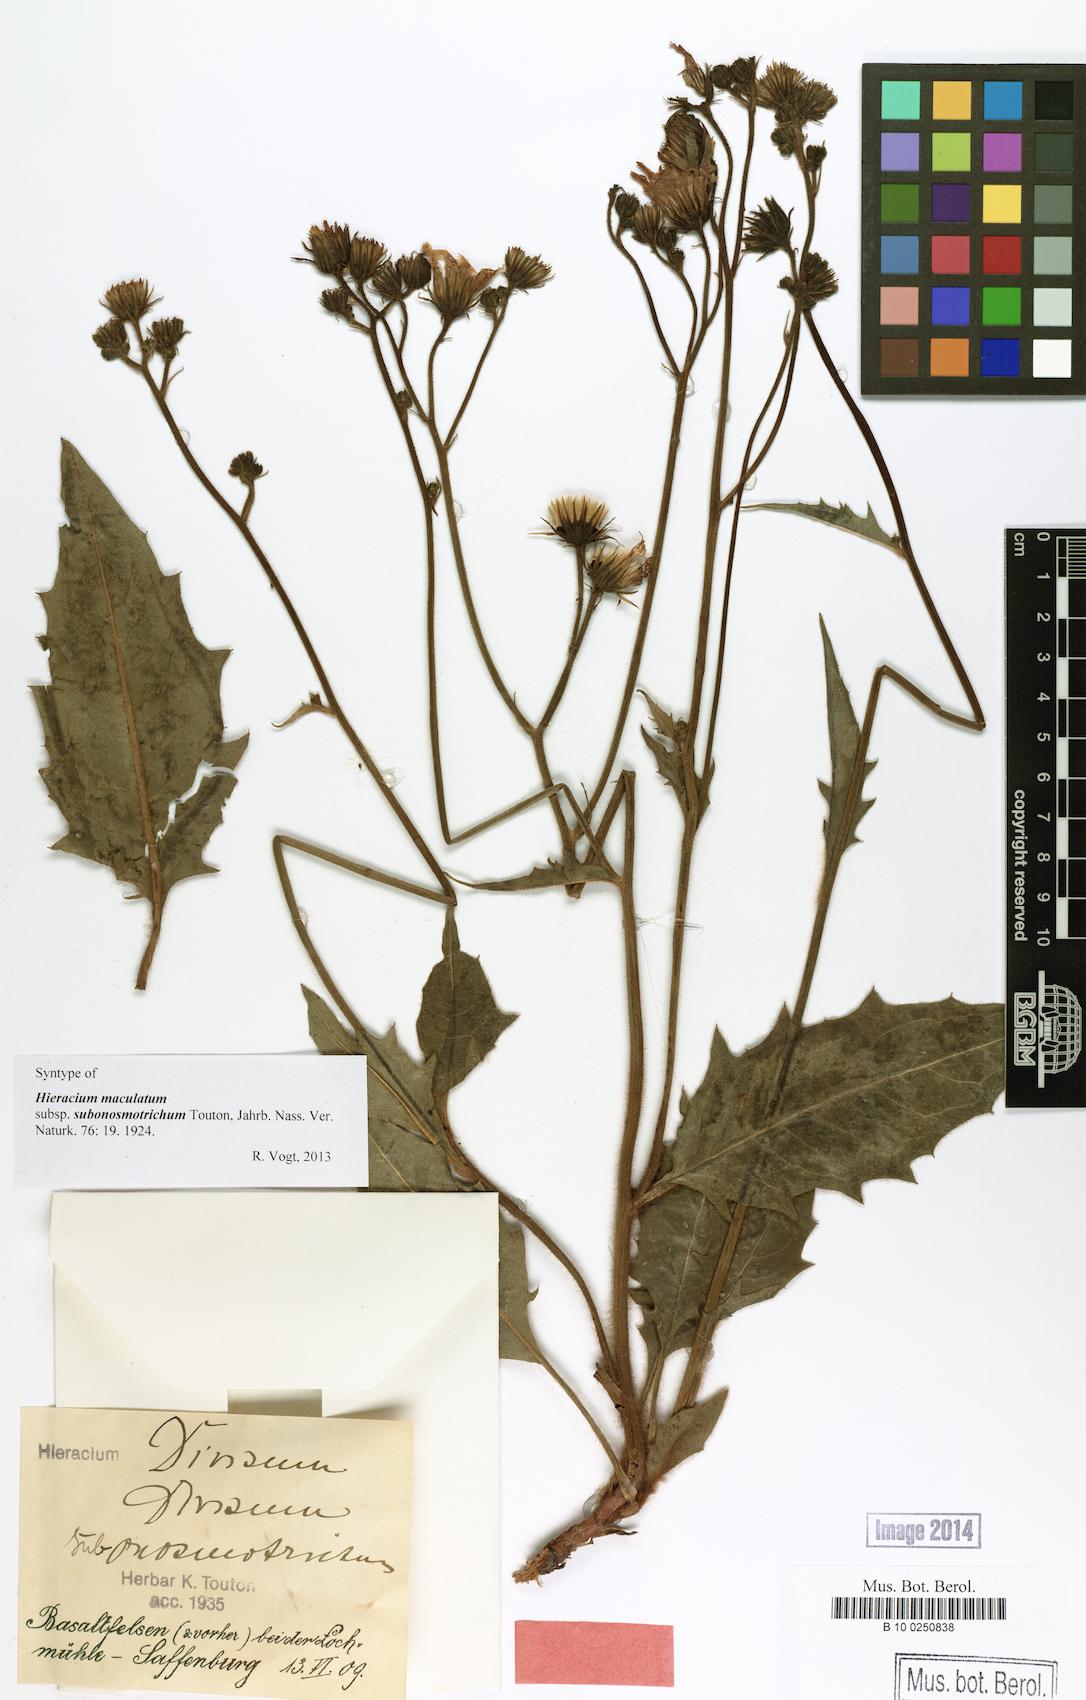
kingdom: Plantae
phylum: Tracheophyta
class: Magnoliopsida
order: Asterales
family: Asteraceae
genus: Hieracium
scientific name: Hieracium maculatum
